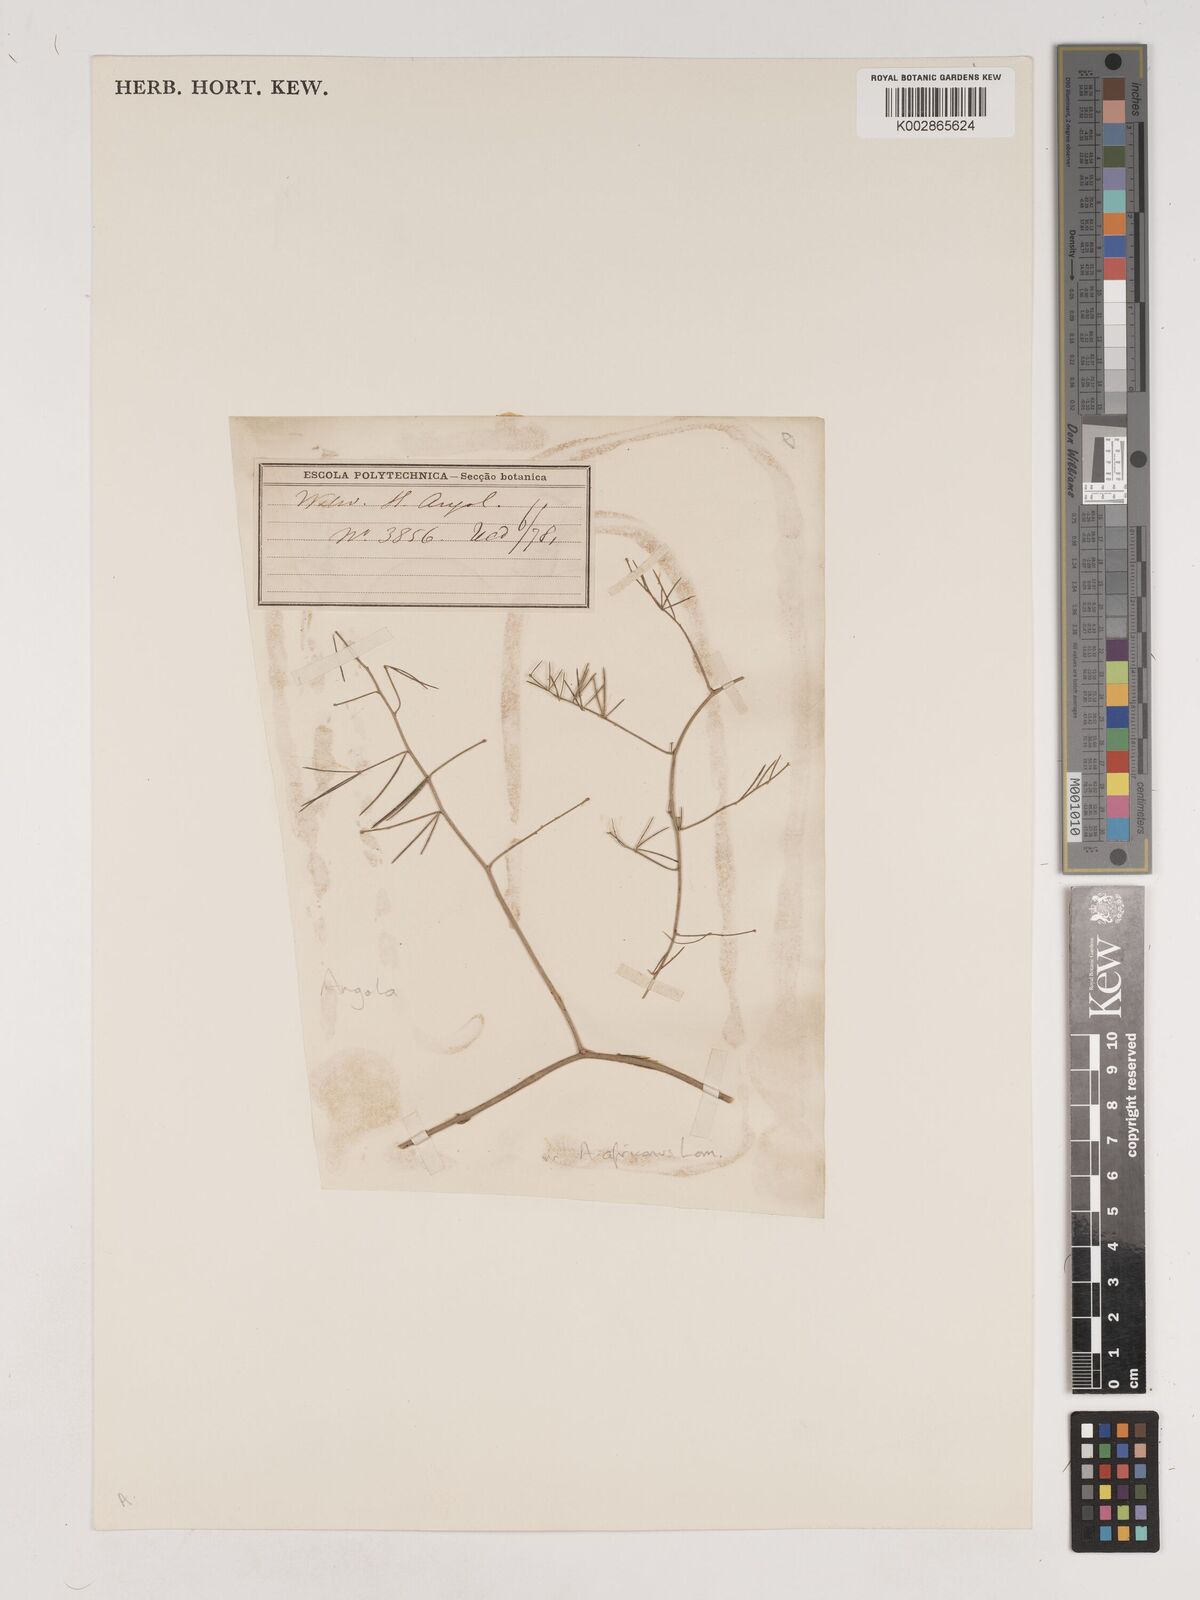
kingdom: Plantae
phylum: Tracheophyta
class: Liliopsida
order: Asparagales
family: Asparagaceae
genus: Asparagus
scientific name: Asparagus africanus
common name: Asparagus-fern
